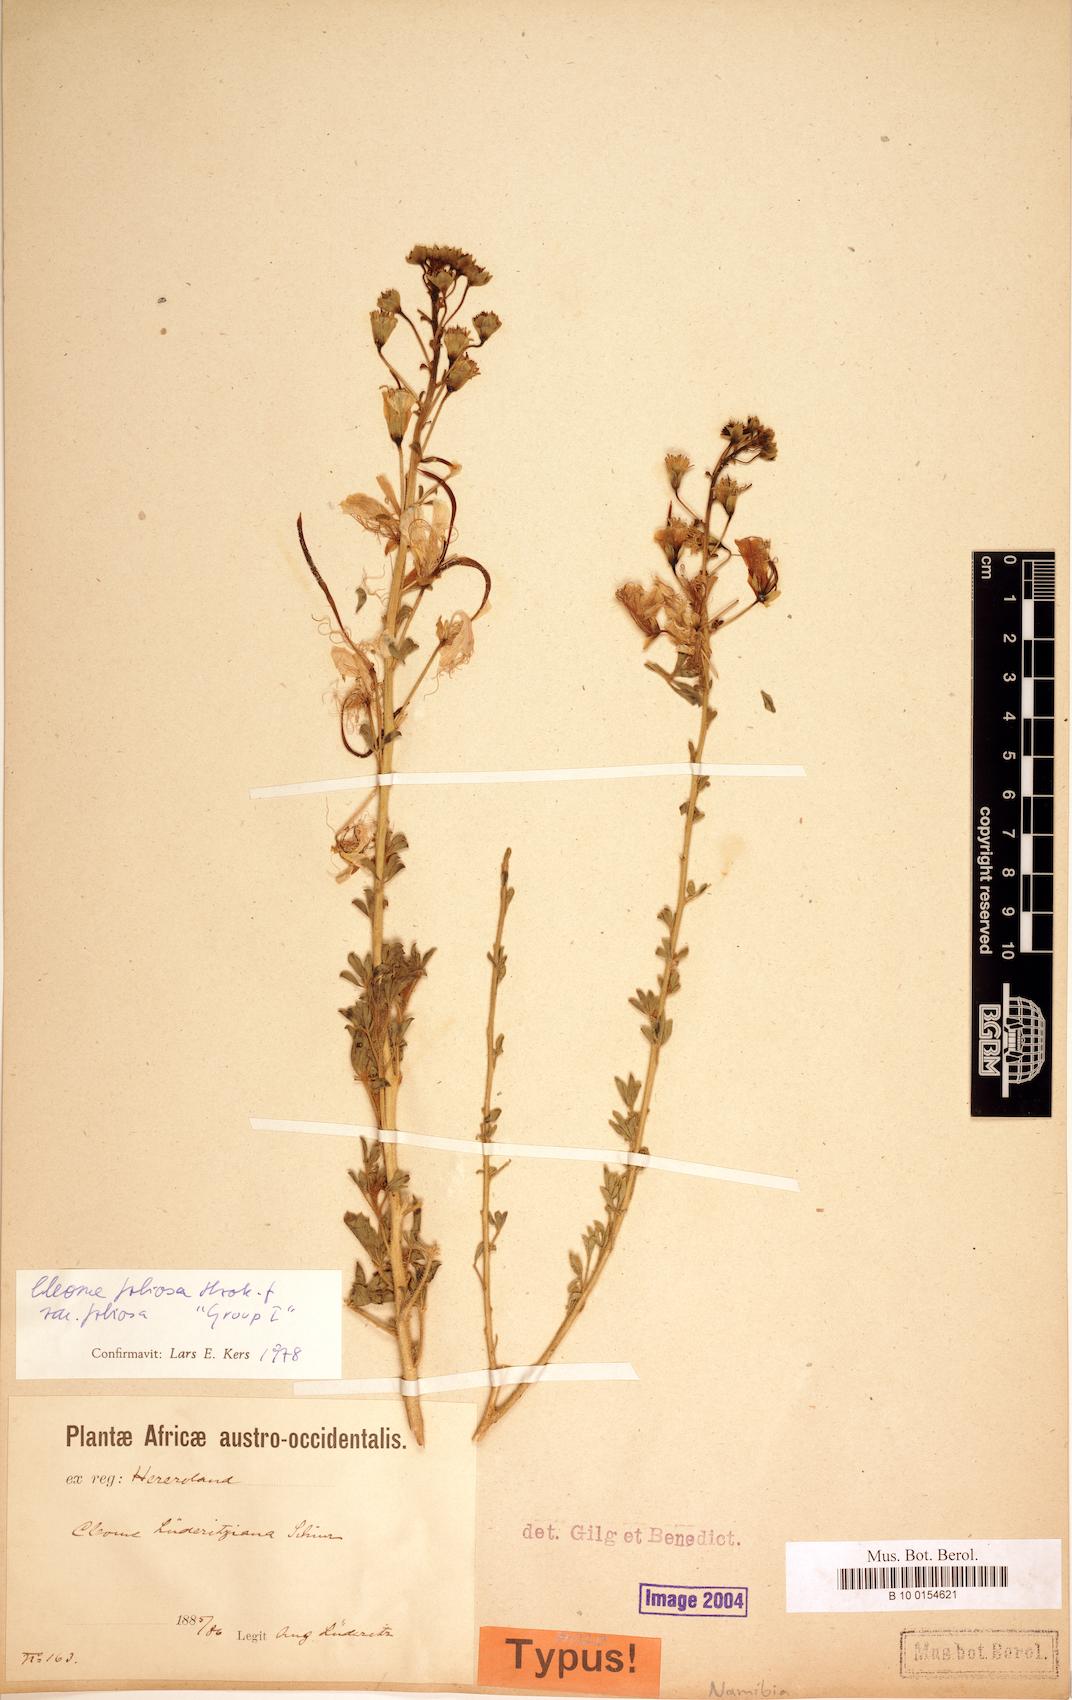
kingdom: Plantae
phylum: Tracheophyta
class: Magnoliopsida
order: Brassicales
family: Cleomaceae
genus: Kersia
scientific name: Kersia foliosa
